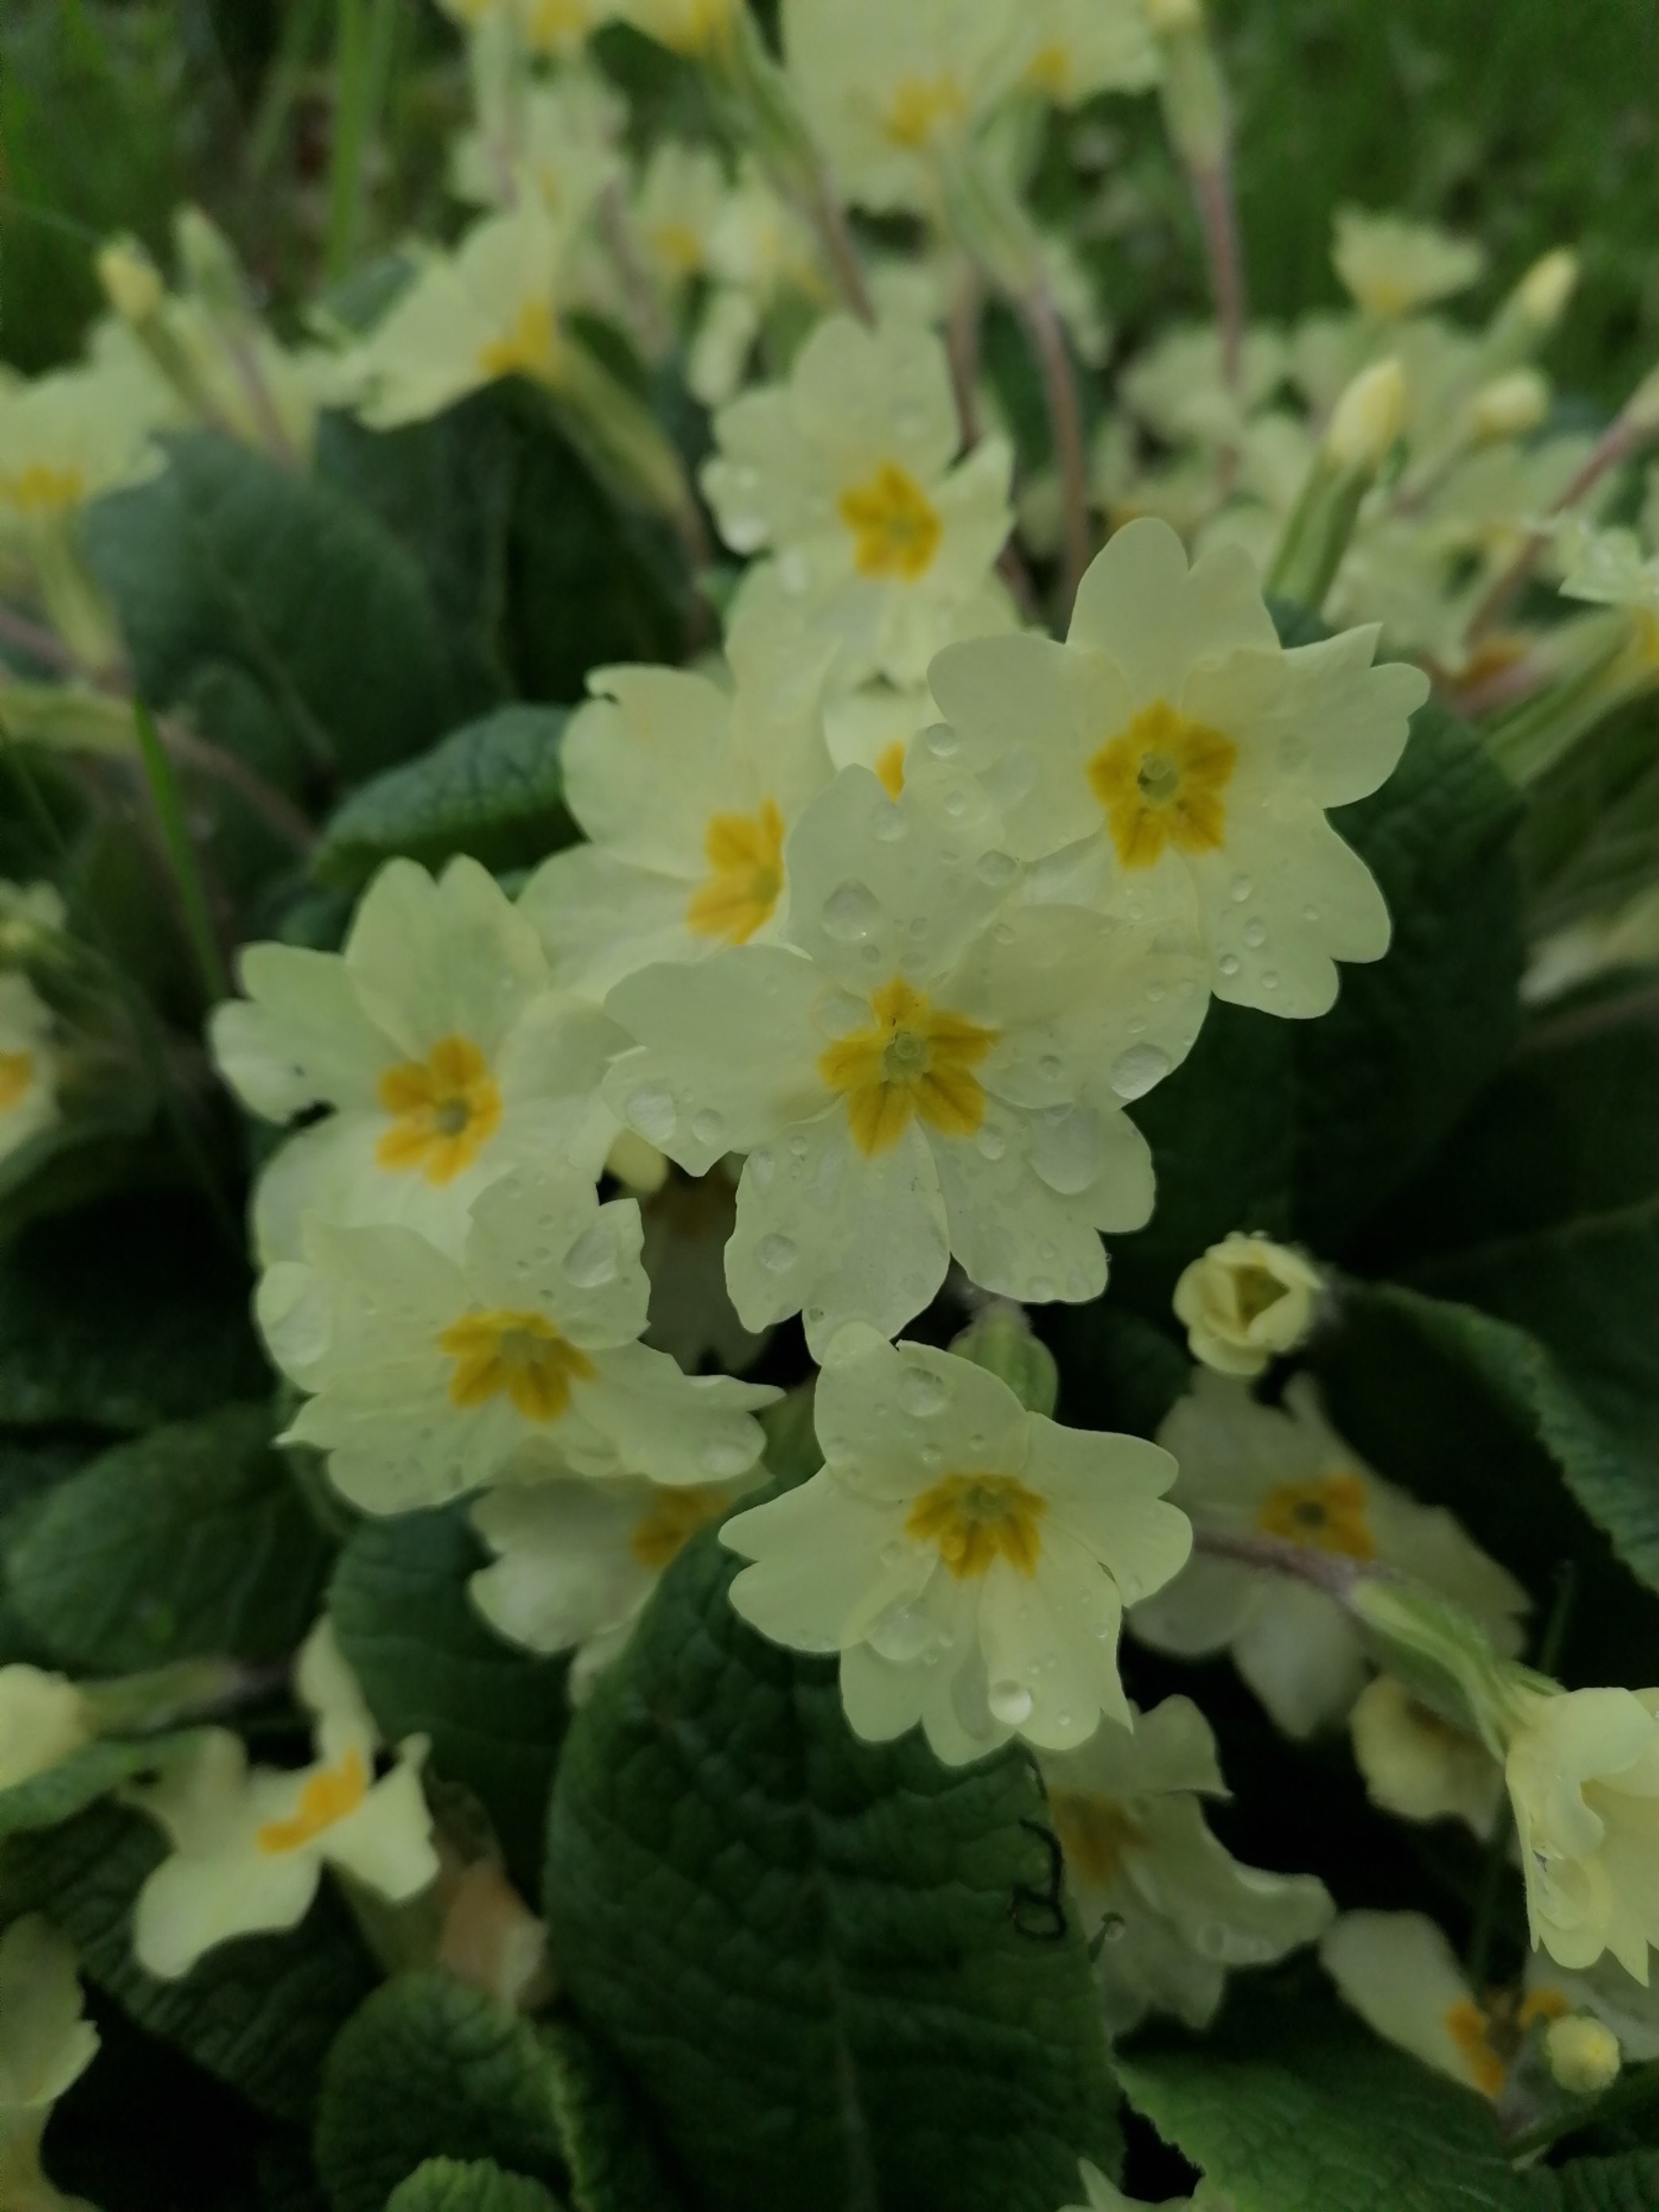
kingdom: Plantae
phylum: Tracheophyta
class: Magnoliopsida
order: Ericales
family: Primulaceae
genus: Primula
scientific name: Primula vulgaris
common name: Storblomstret kodriver
